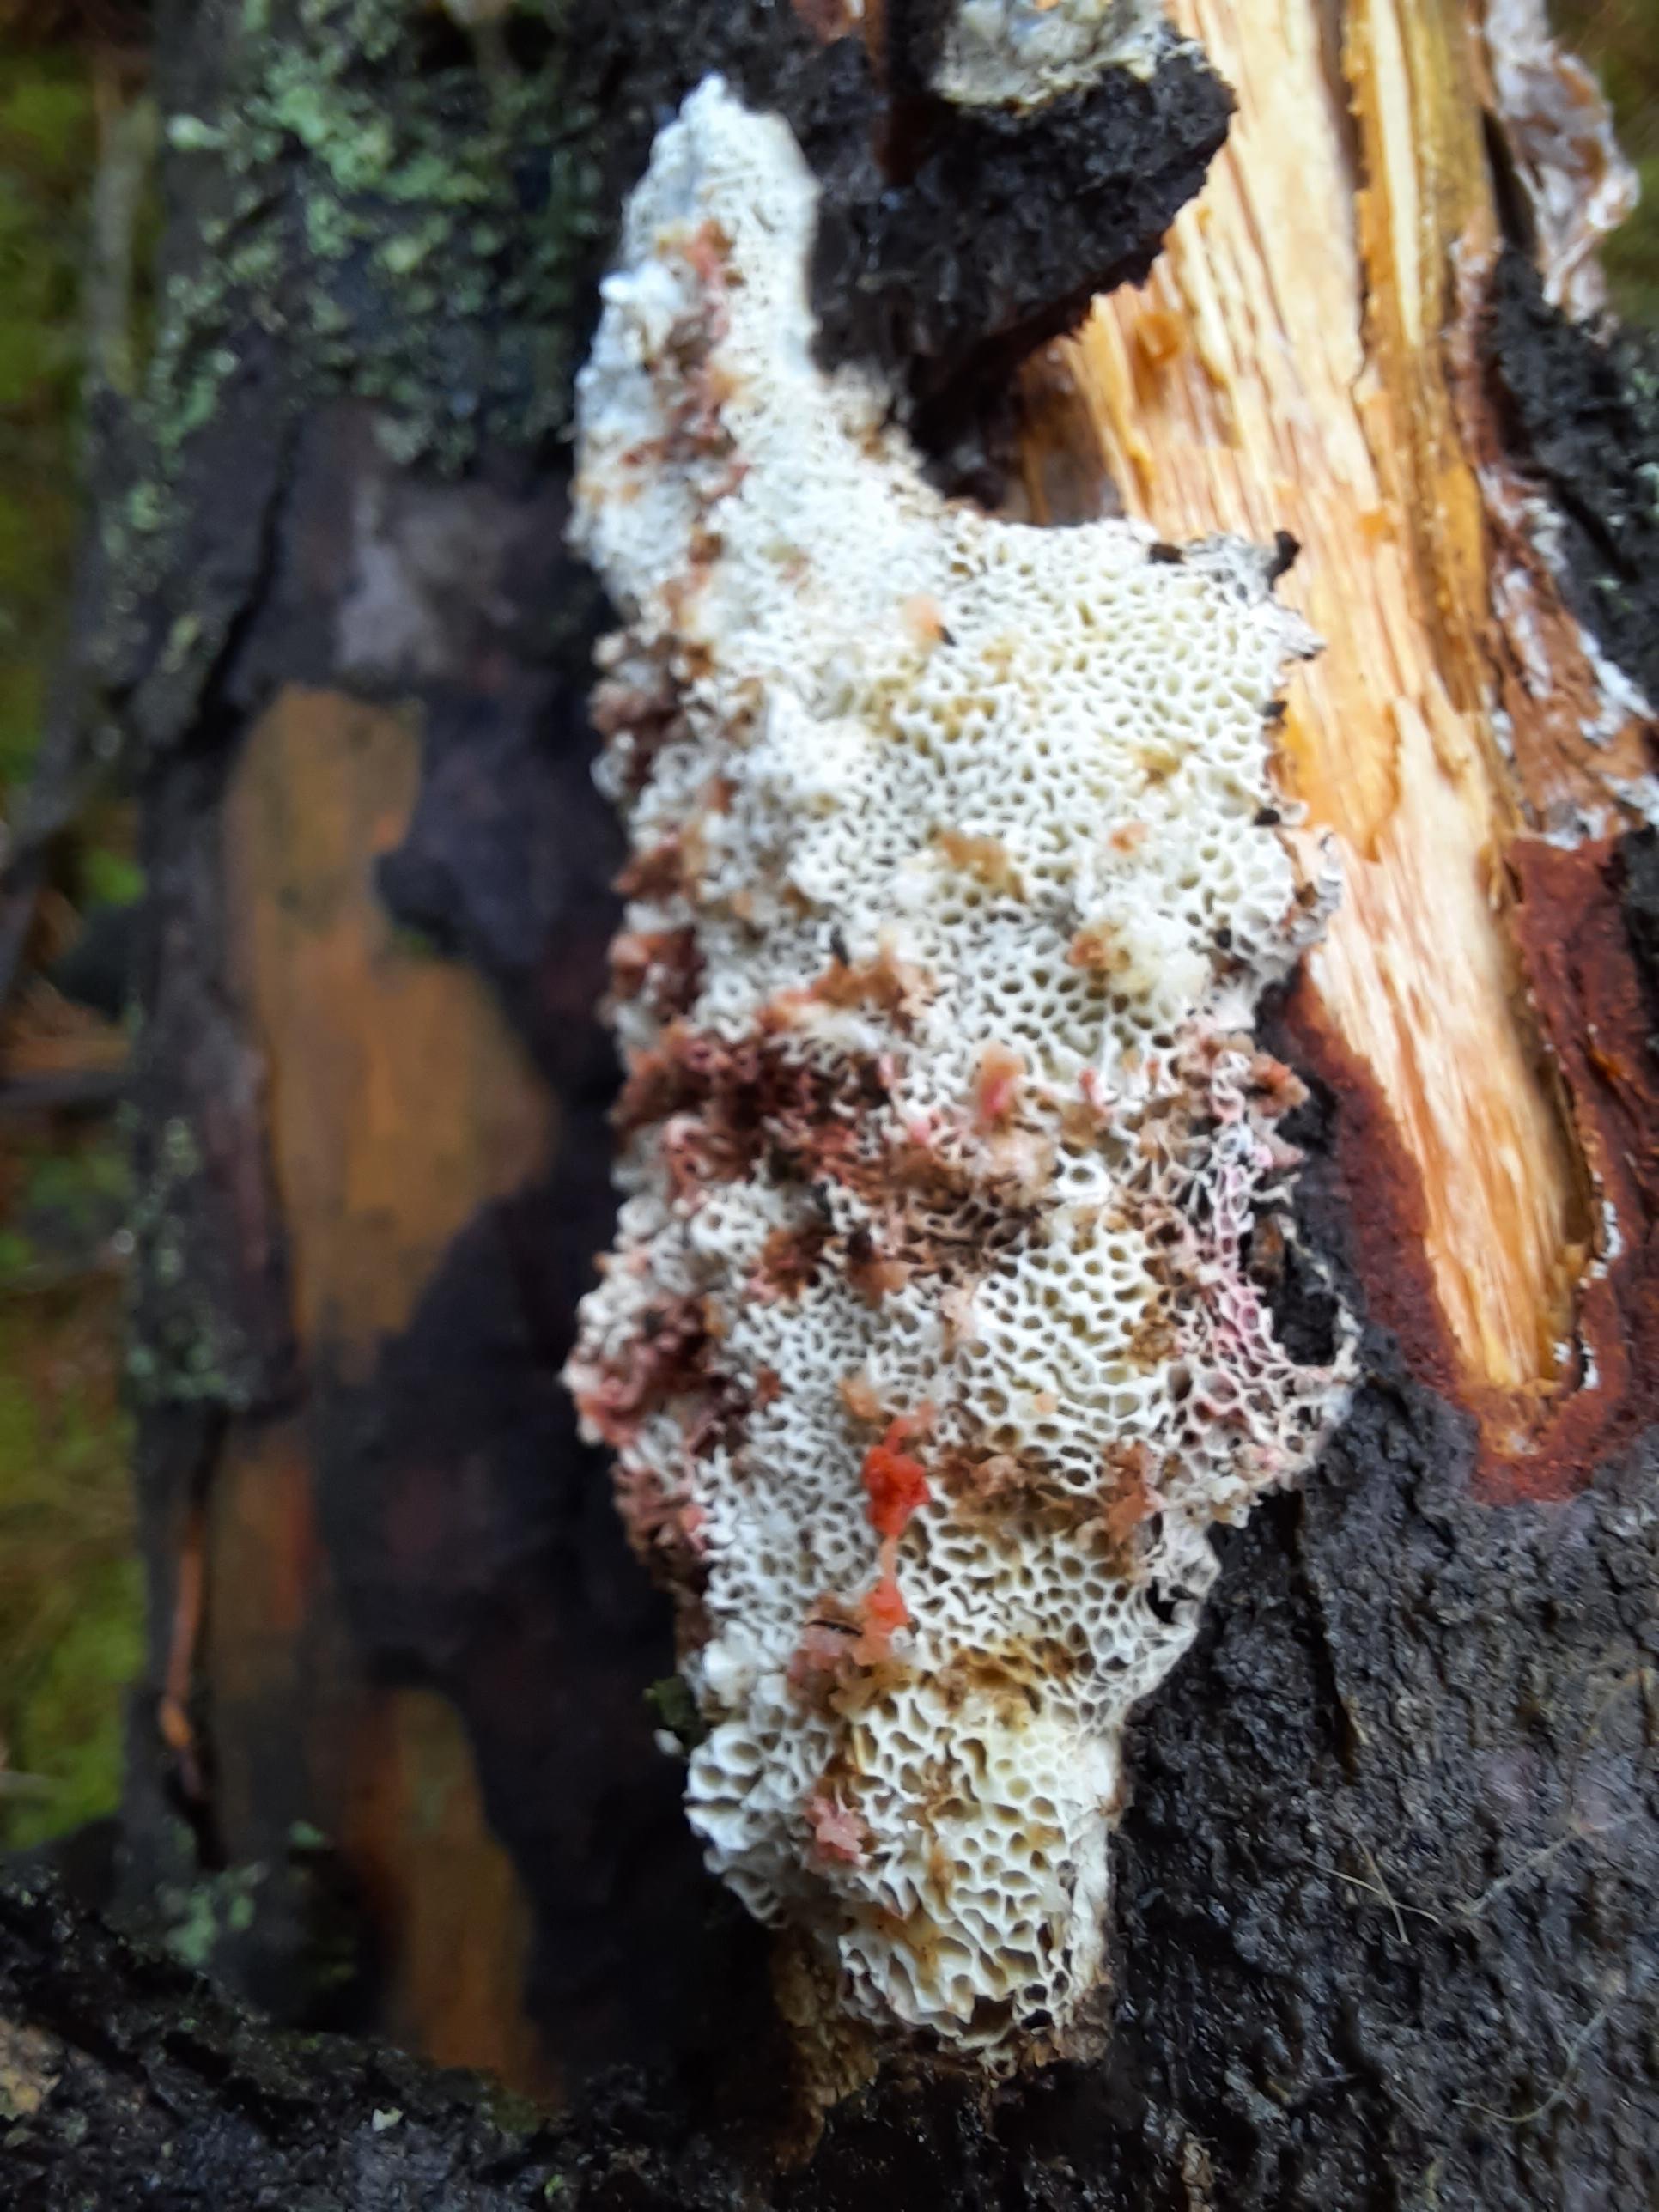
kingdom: Fungi
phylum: Basidiomycota
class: Agaricomycetes
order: Polyporales
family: Fomitopsidaceae
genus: Fomitopsis
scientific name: Fomitopsis
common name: fyrre-skiveporesvamp
